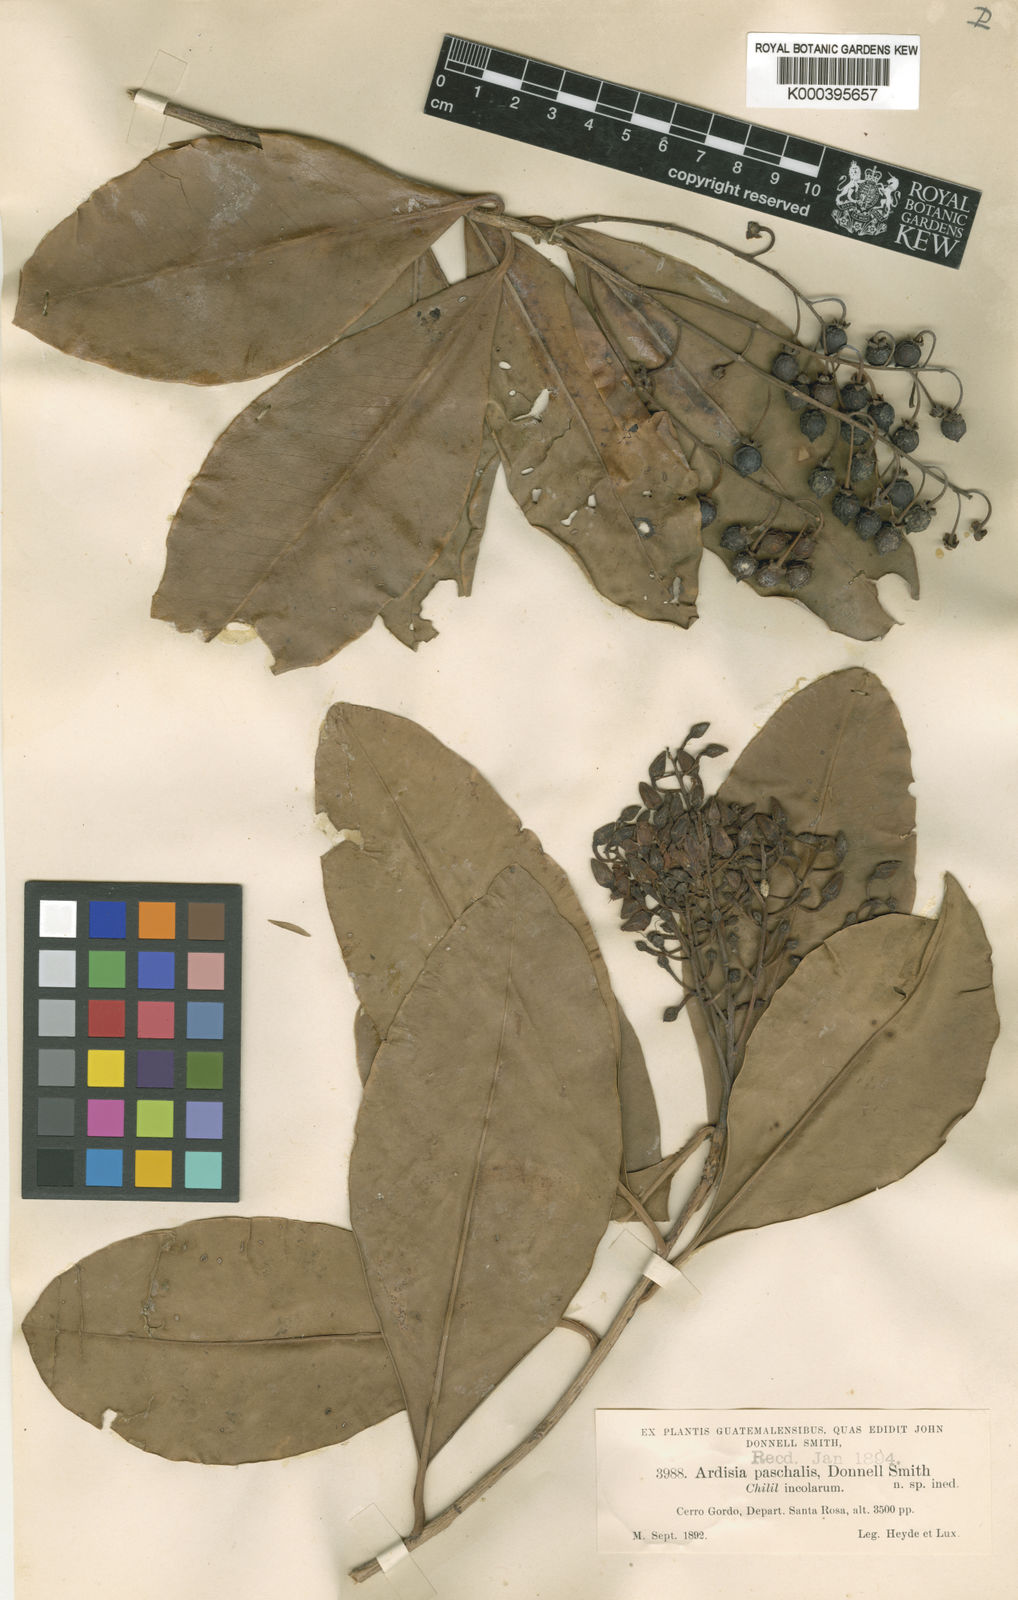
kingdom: Plantae
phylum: Tracheophyta
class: Magnoliopsida
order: Ericales
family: Primulaceae
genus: Ardisia
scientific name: Ardisia paschalis
